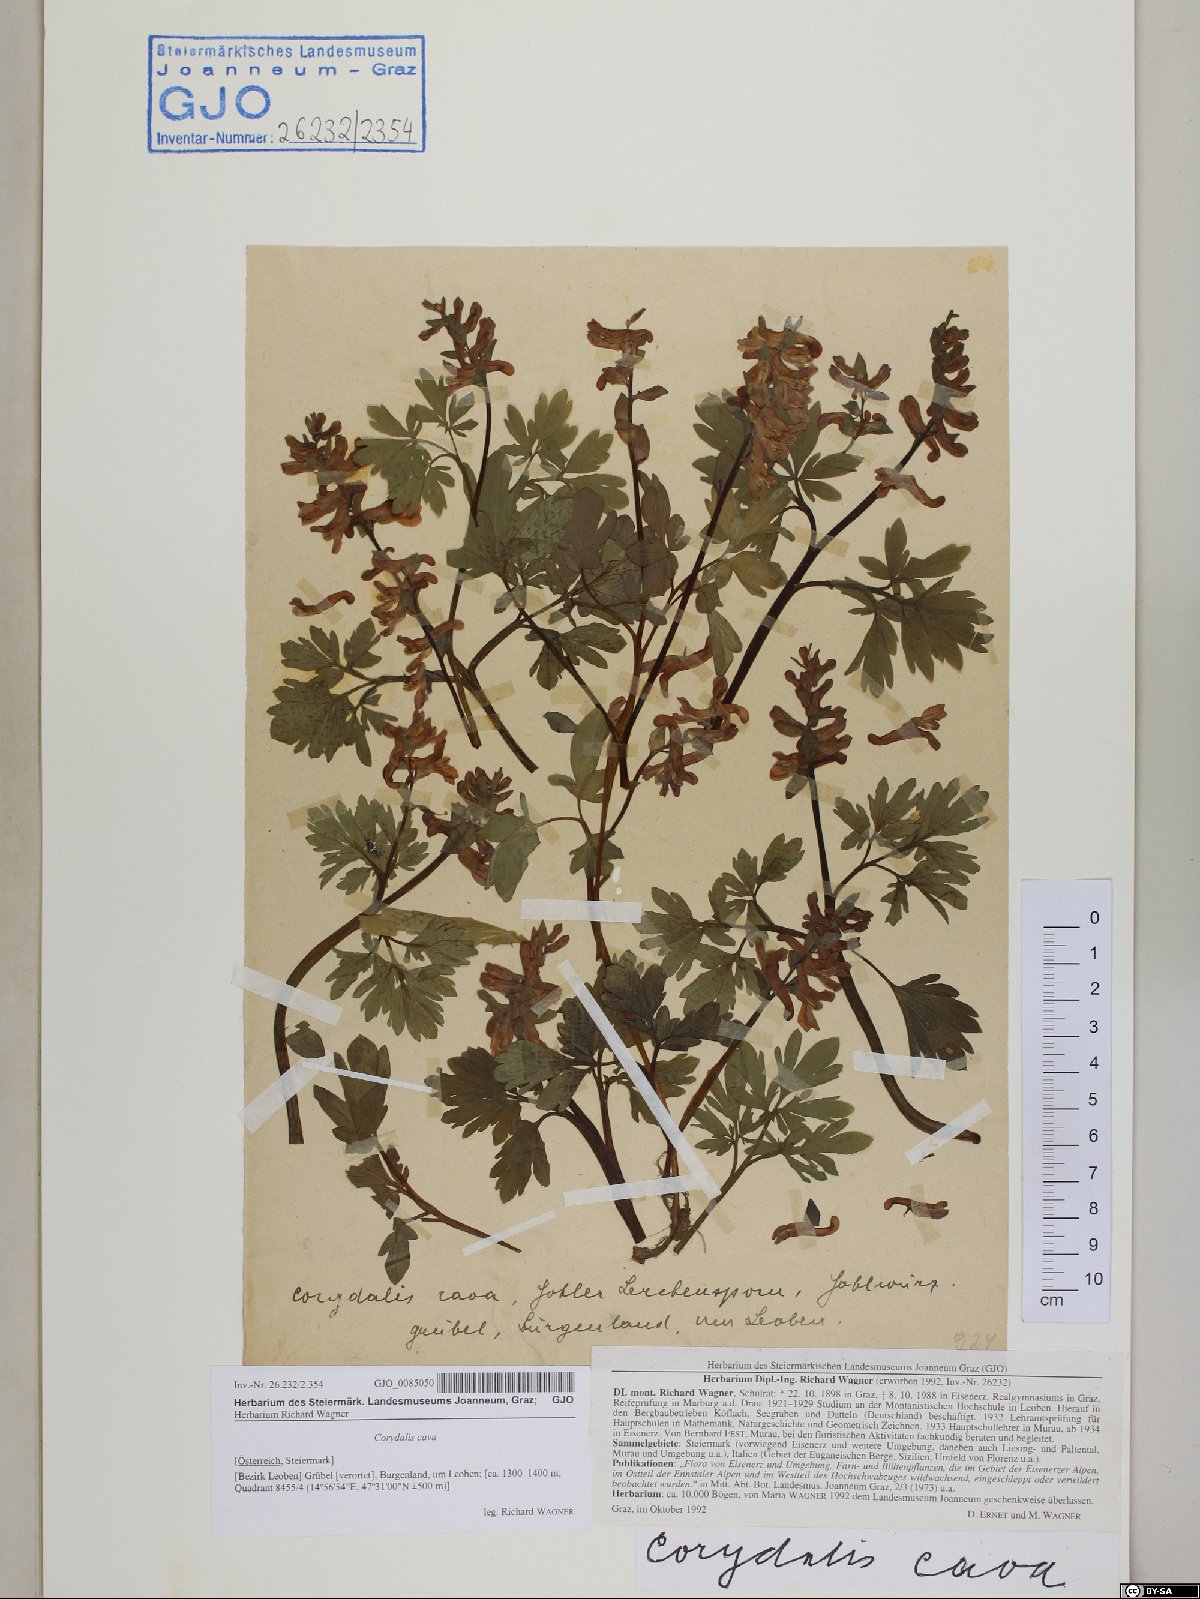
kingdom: Plantae
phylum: Tracheophyta
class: Magnoliopsida
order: Ranunculales
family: Papaveraceae
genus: Corydalis
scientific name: Corydalis cava
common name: Hollowroot
